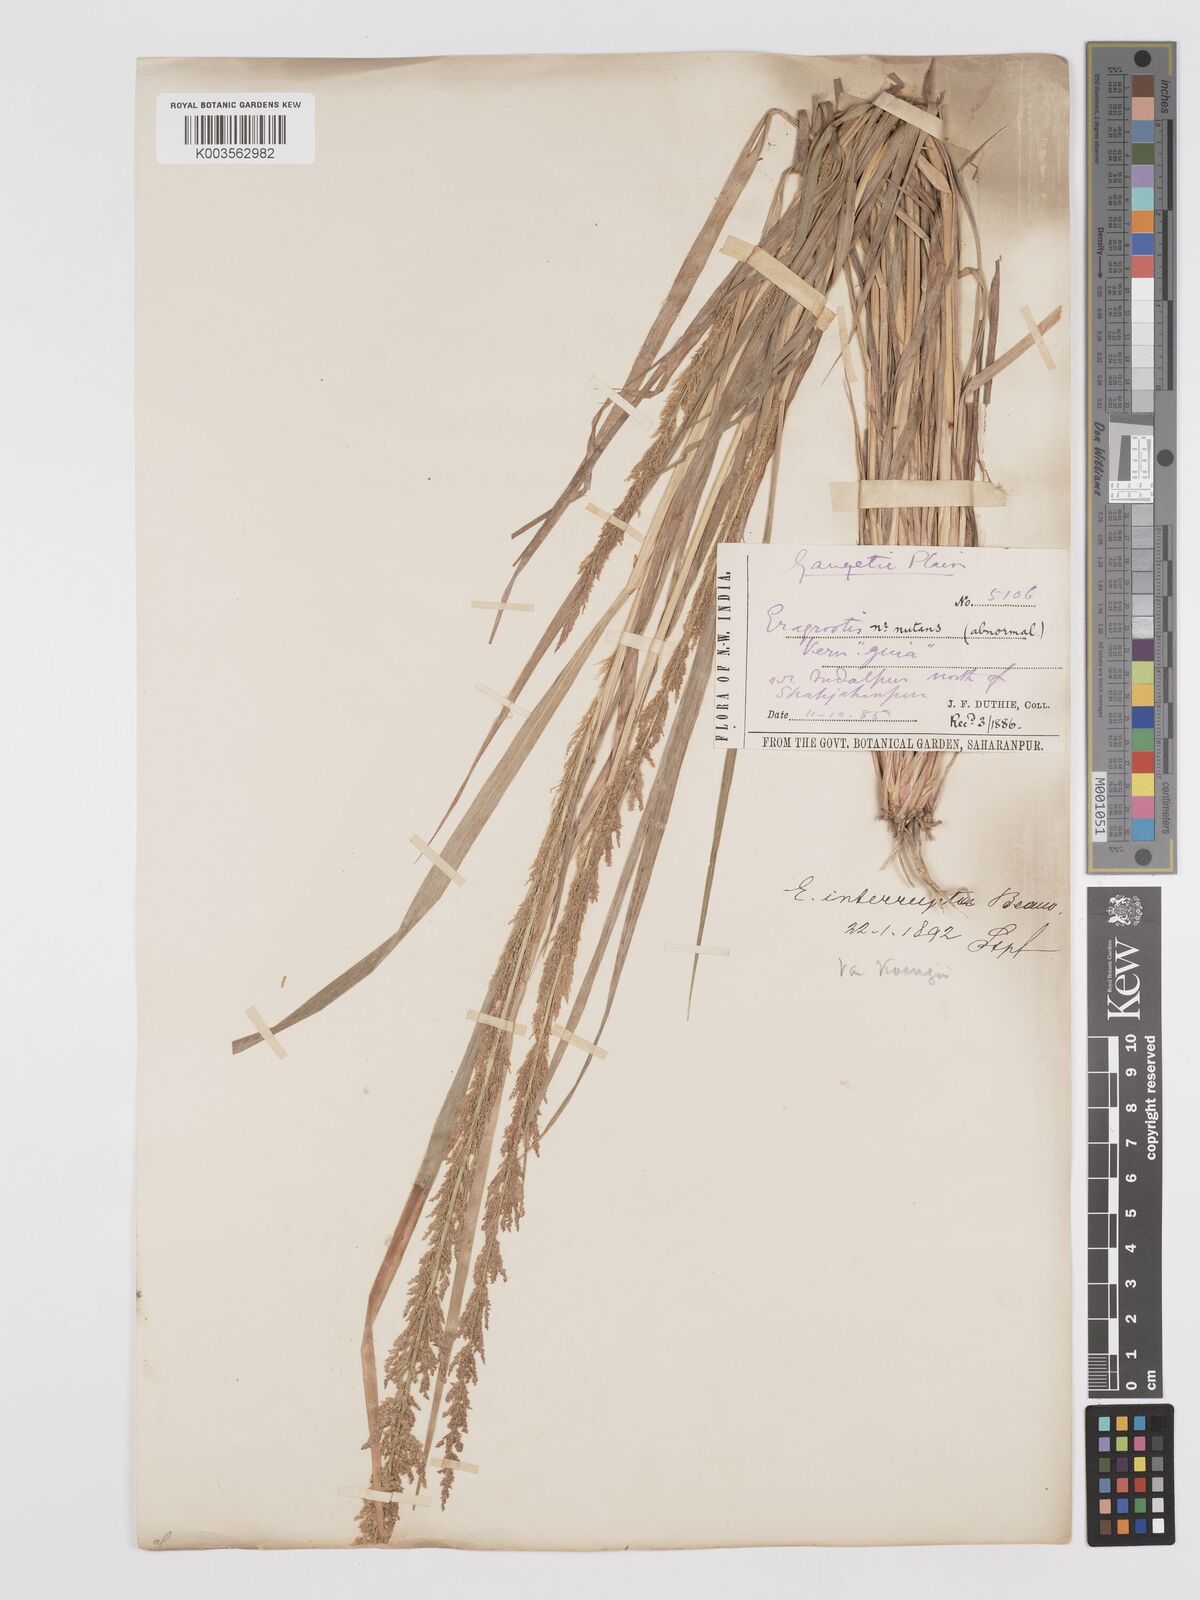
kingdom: Plantae
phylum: Tracheophyta
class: Liliopsida
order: Poales
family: Poaceae
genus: Eragrostis
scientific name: Eragrostis japonica
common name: Pond lovegrass
